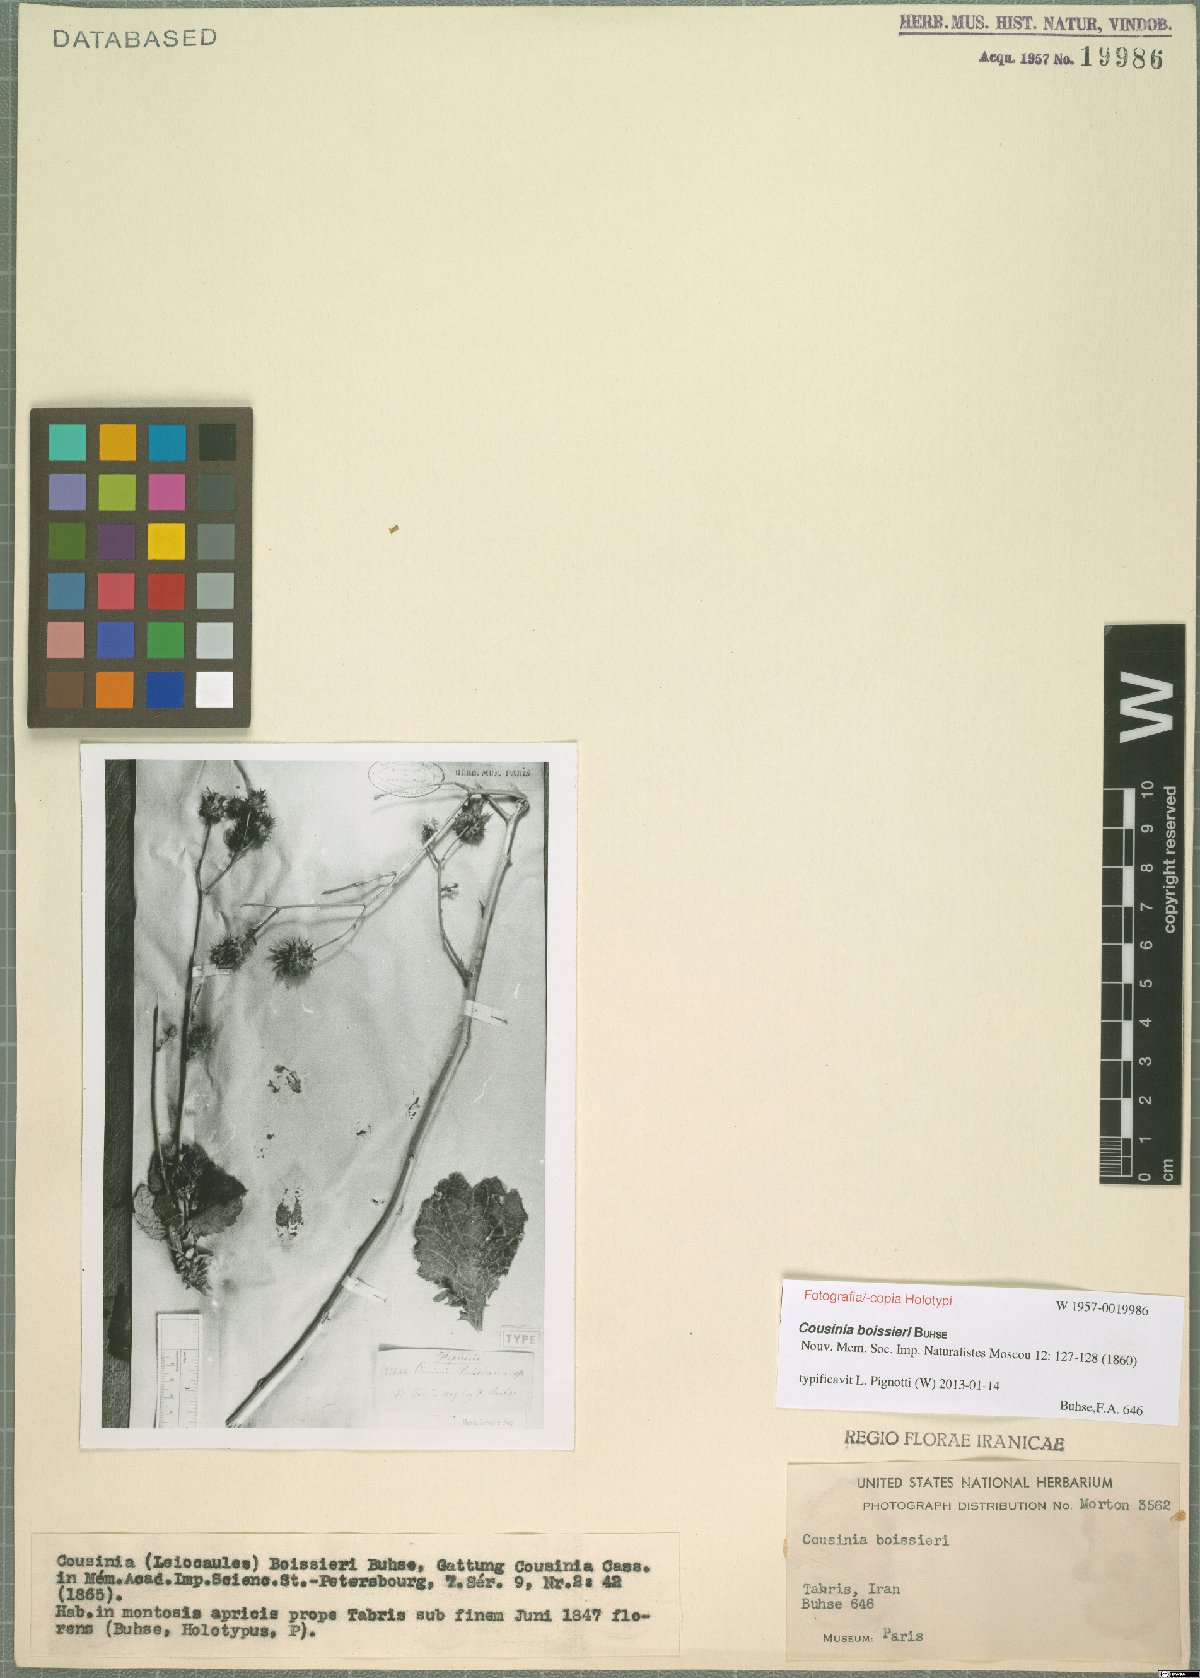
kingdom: Plantae
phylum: Tracheophyta
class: Magnoliopsida
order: Asterales
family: Asteraceae
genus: Cousinia
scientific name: Cousinia boissieri
